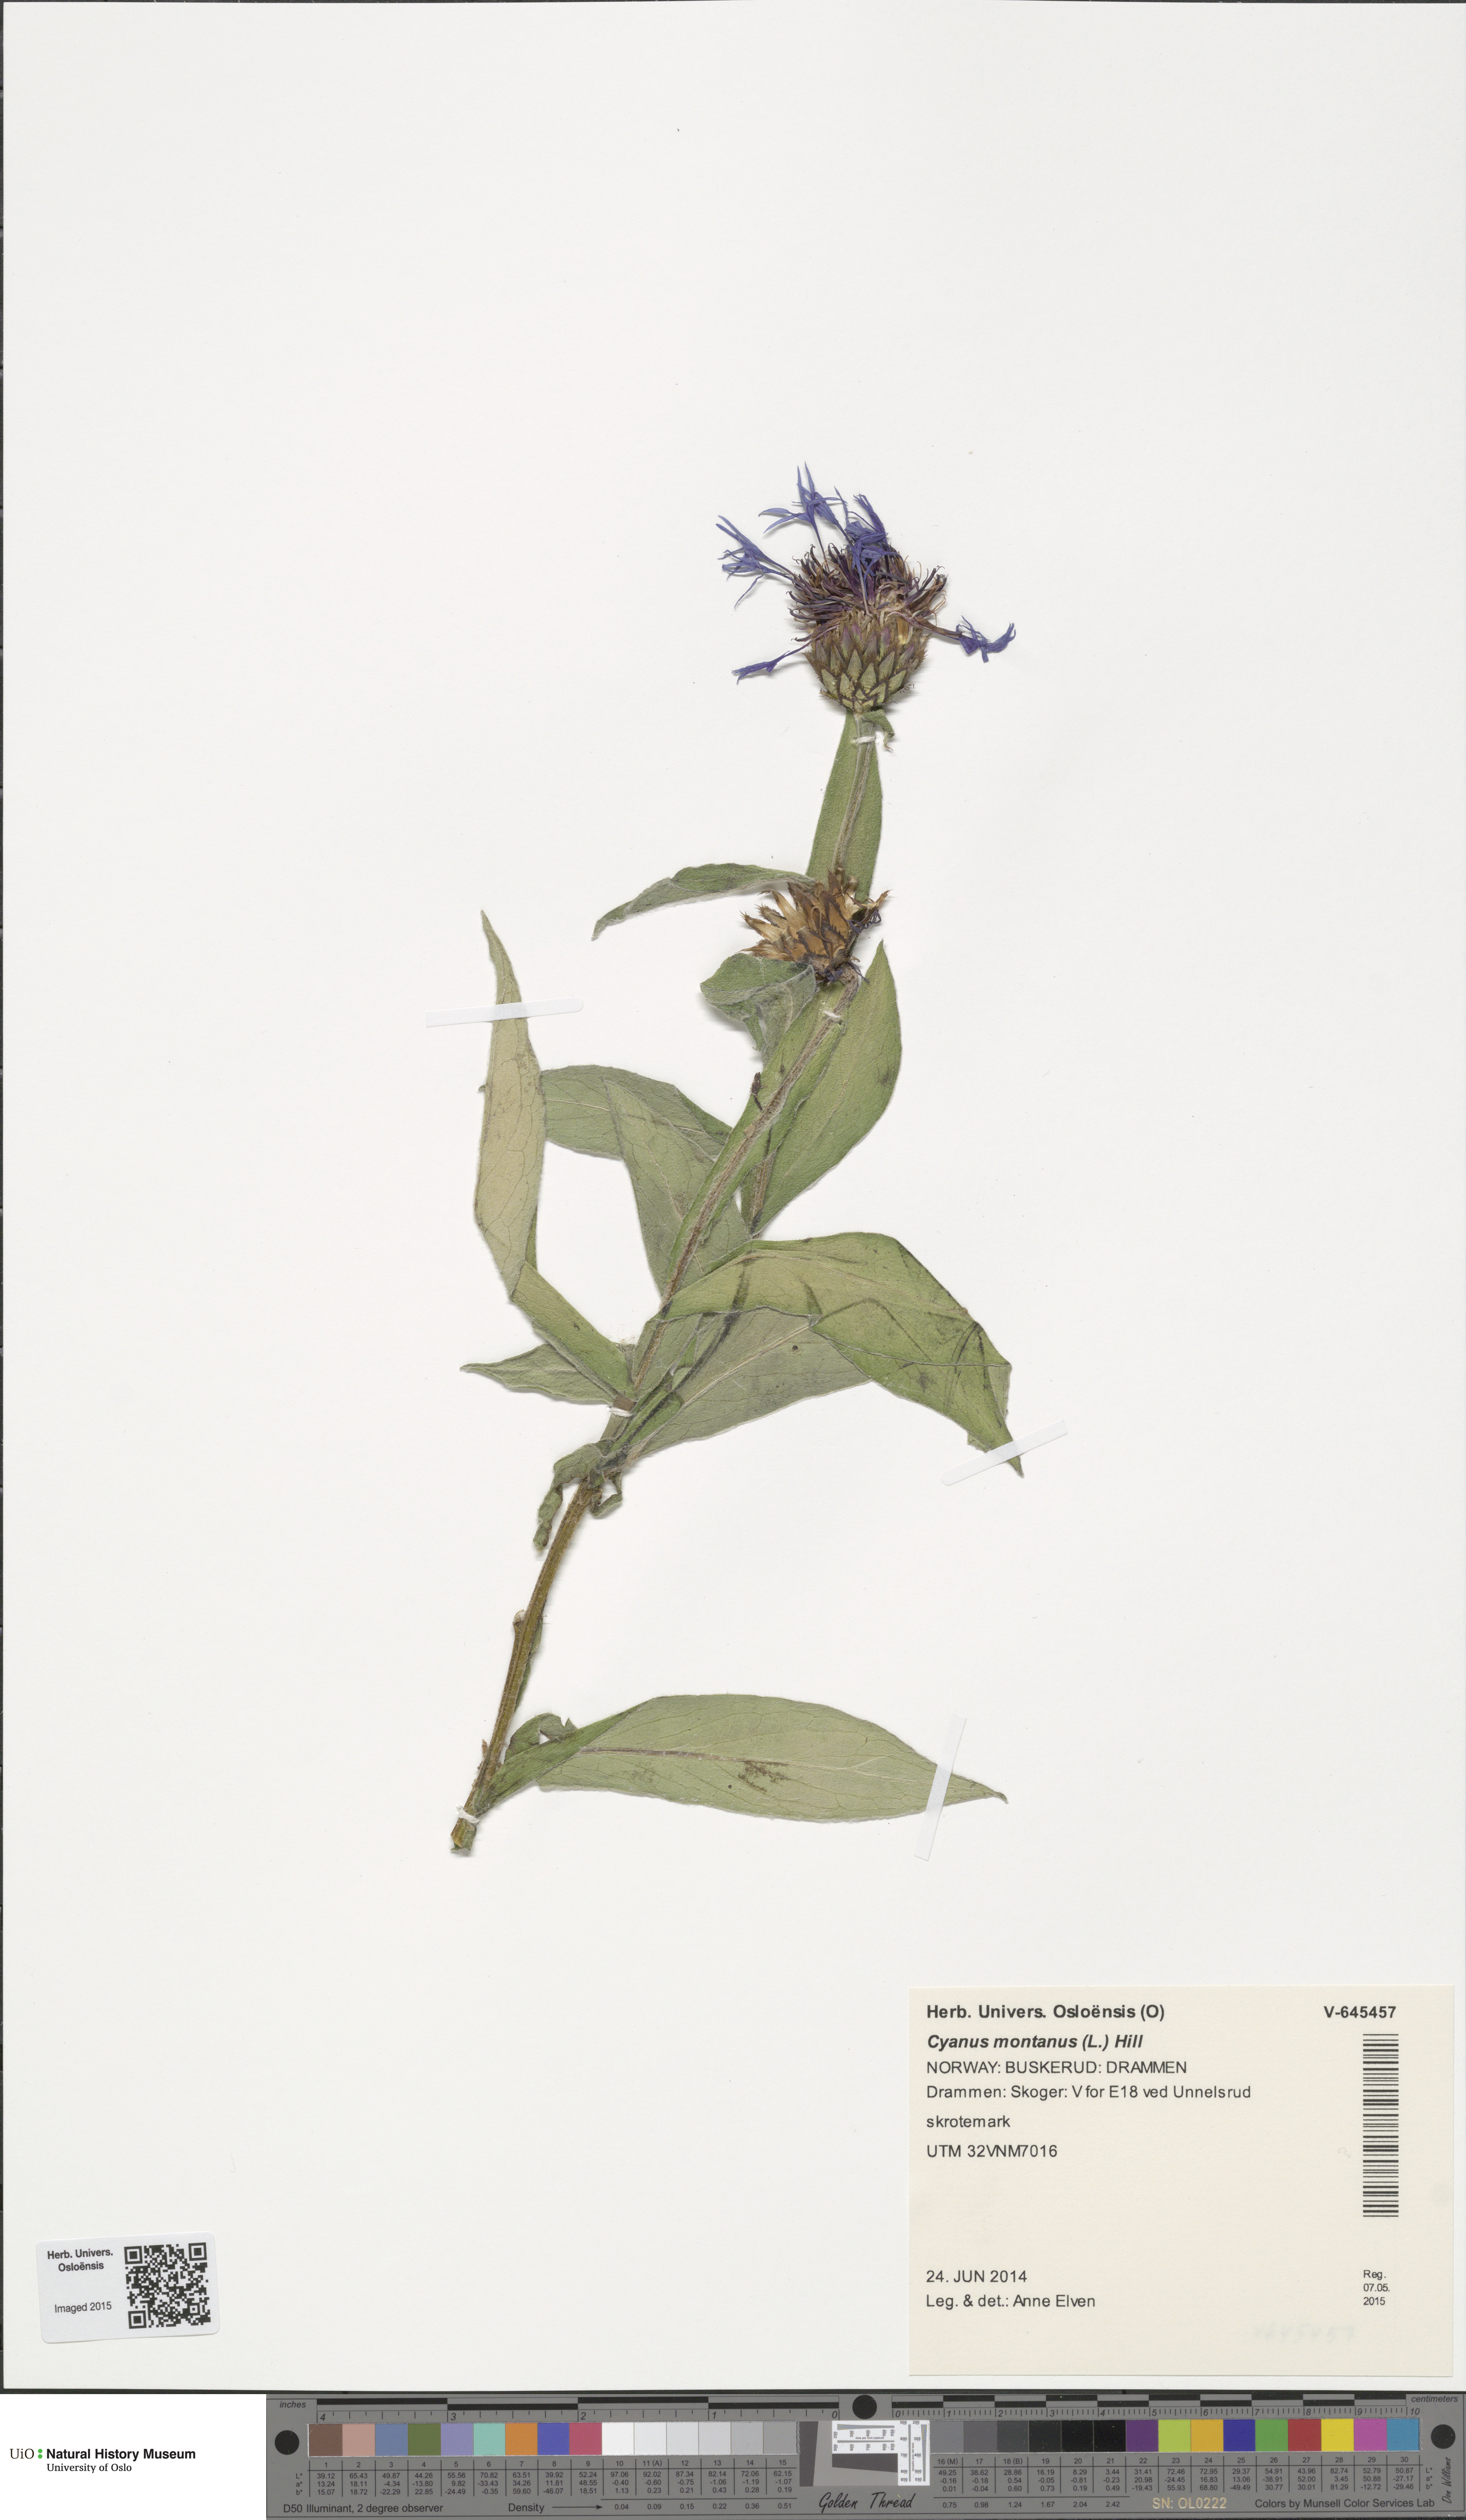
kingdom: Plantae
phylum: Tracheophyta
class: Magnoliopsida
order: Asterales
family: Asteraceae
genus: Centaurea
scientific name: Centaurea montana
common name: Perennial cornflower
